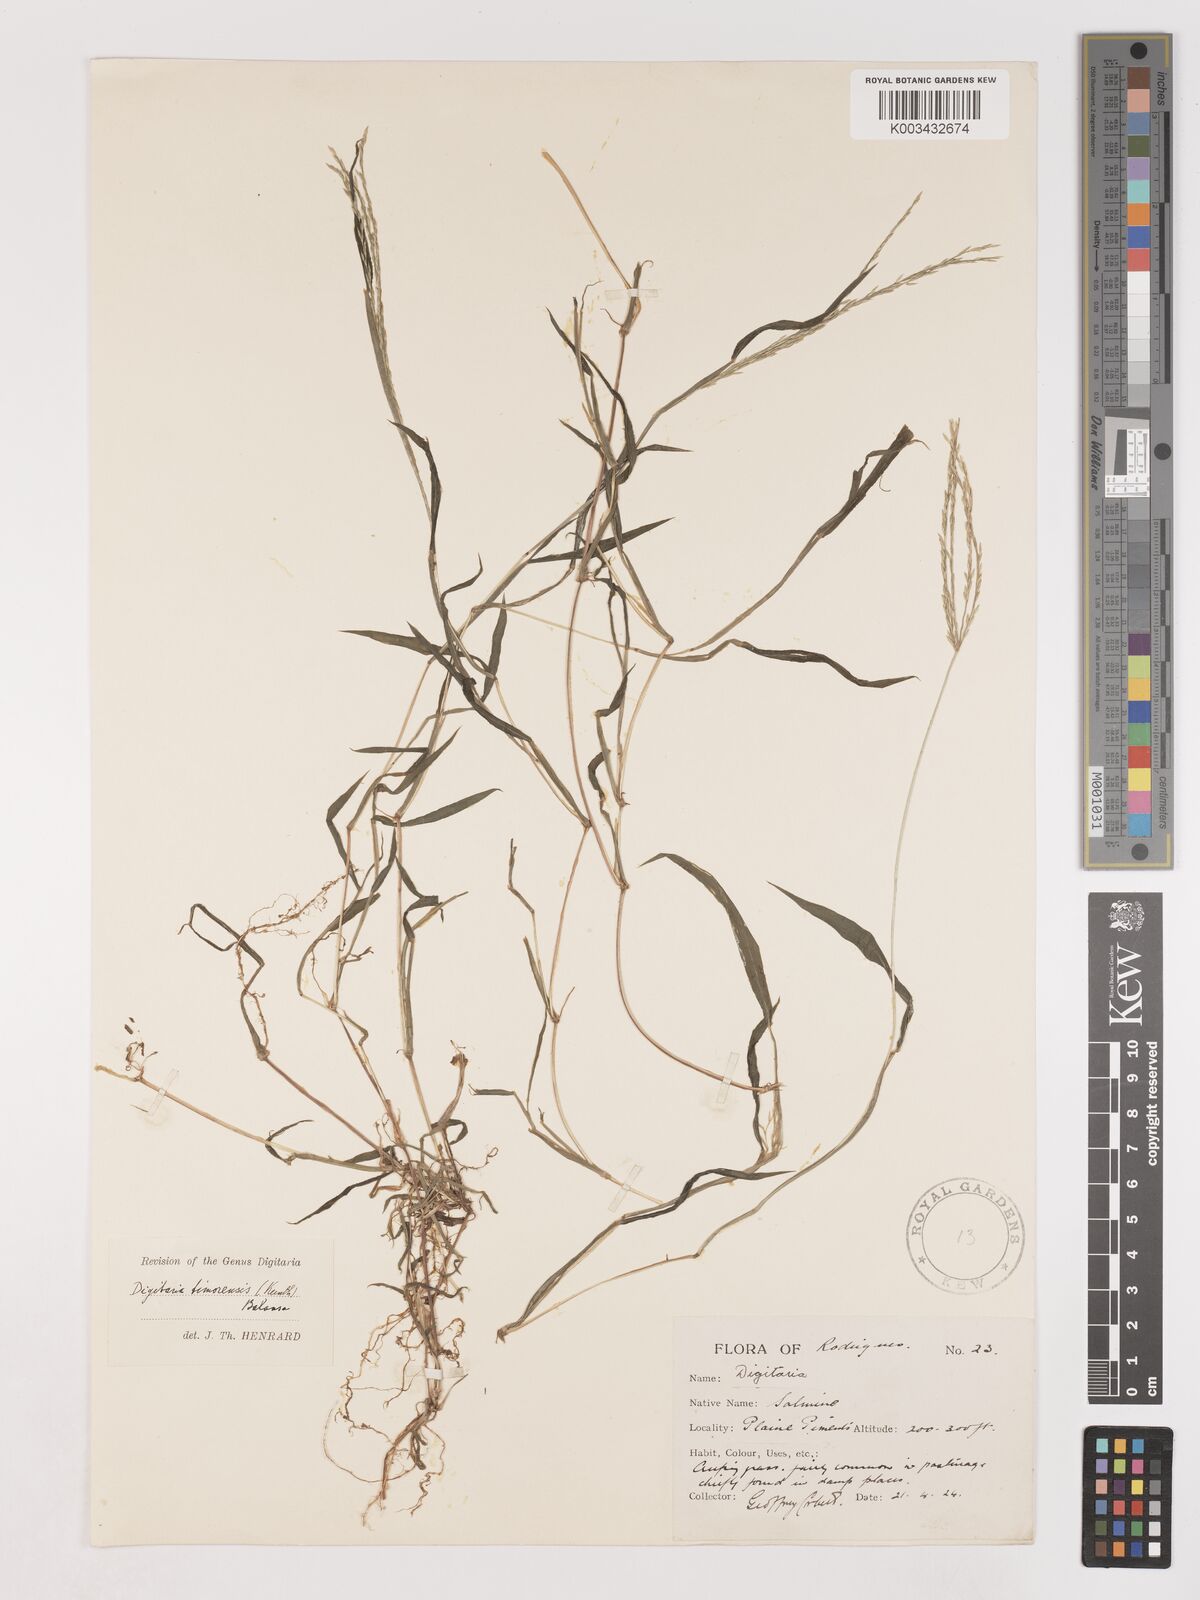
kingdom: Plantae
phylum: Tracheophyta
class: Liliopsida
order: Poales
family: Poaceae
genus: Digitaria
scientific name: Digitaria radicosa
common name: Trailing crabgrass
